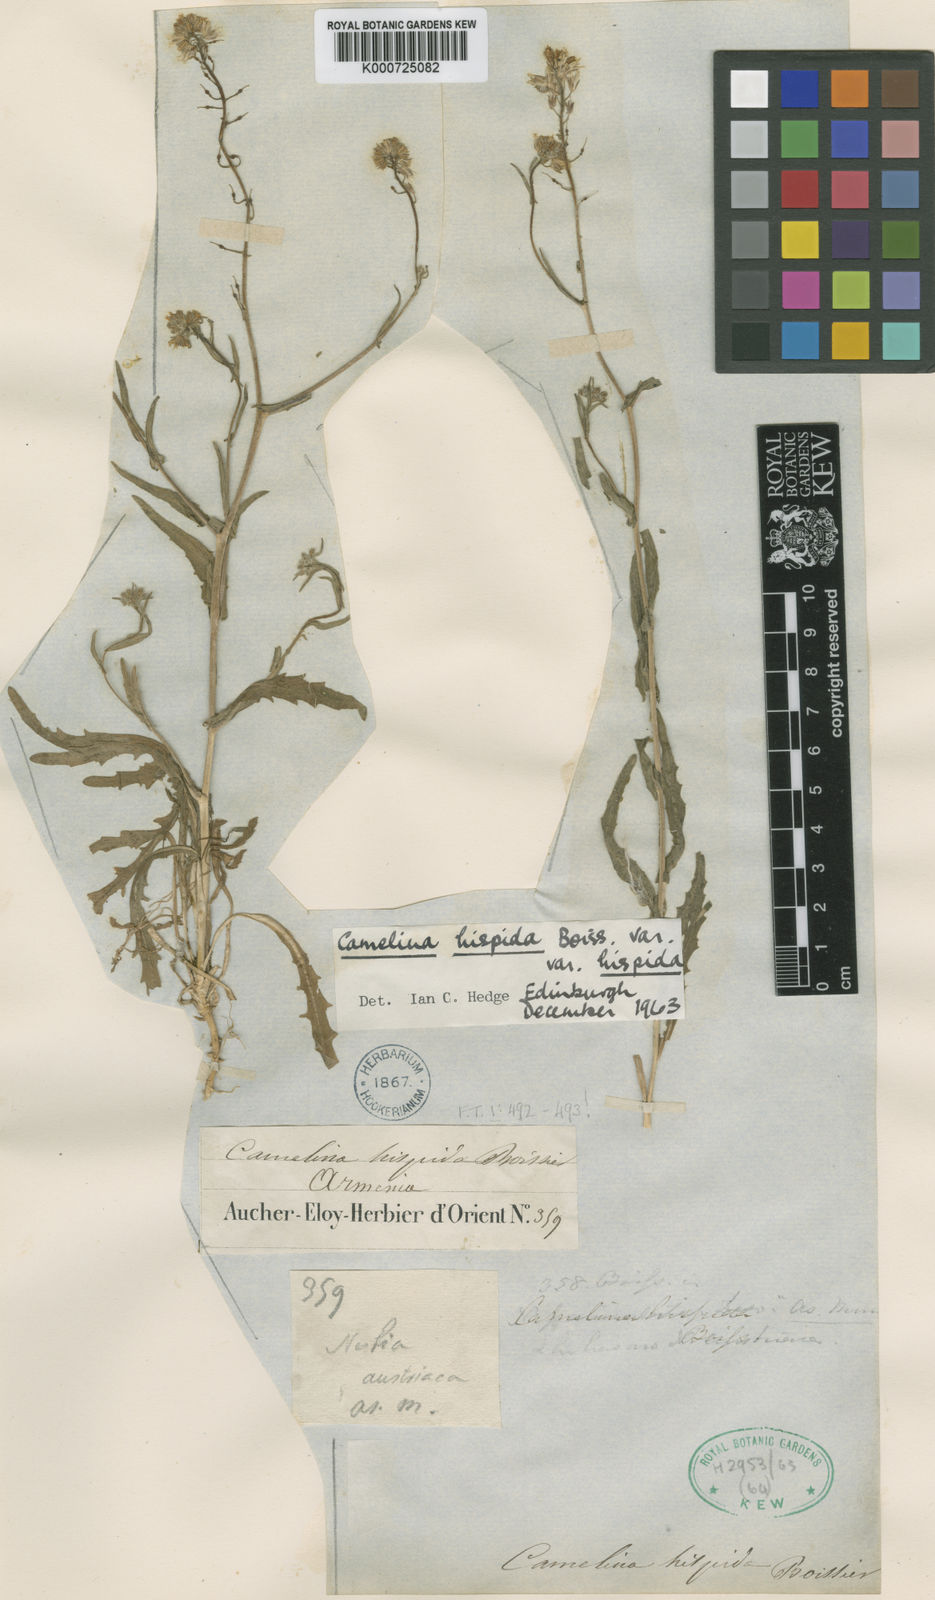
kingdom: Plantae
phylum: Tracheophyta
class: Magnoliopsida
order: Brassicales
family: Brassicaceae
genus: Camelina
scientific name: Camelina hispida
